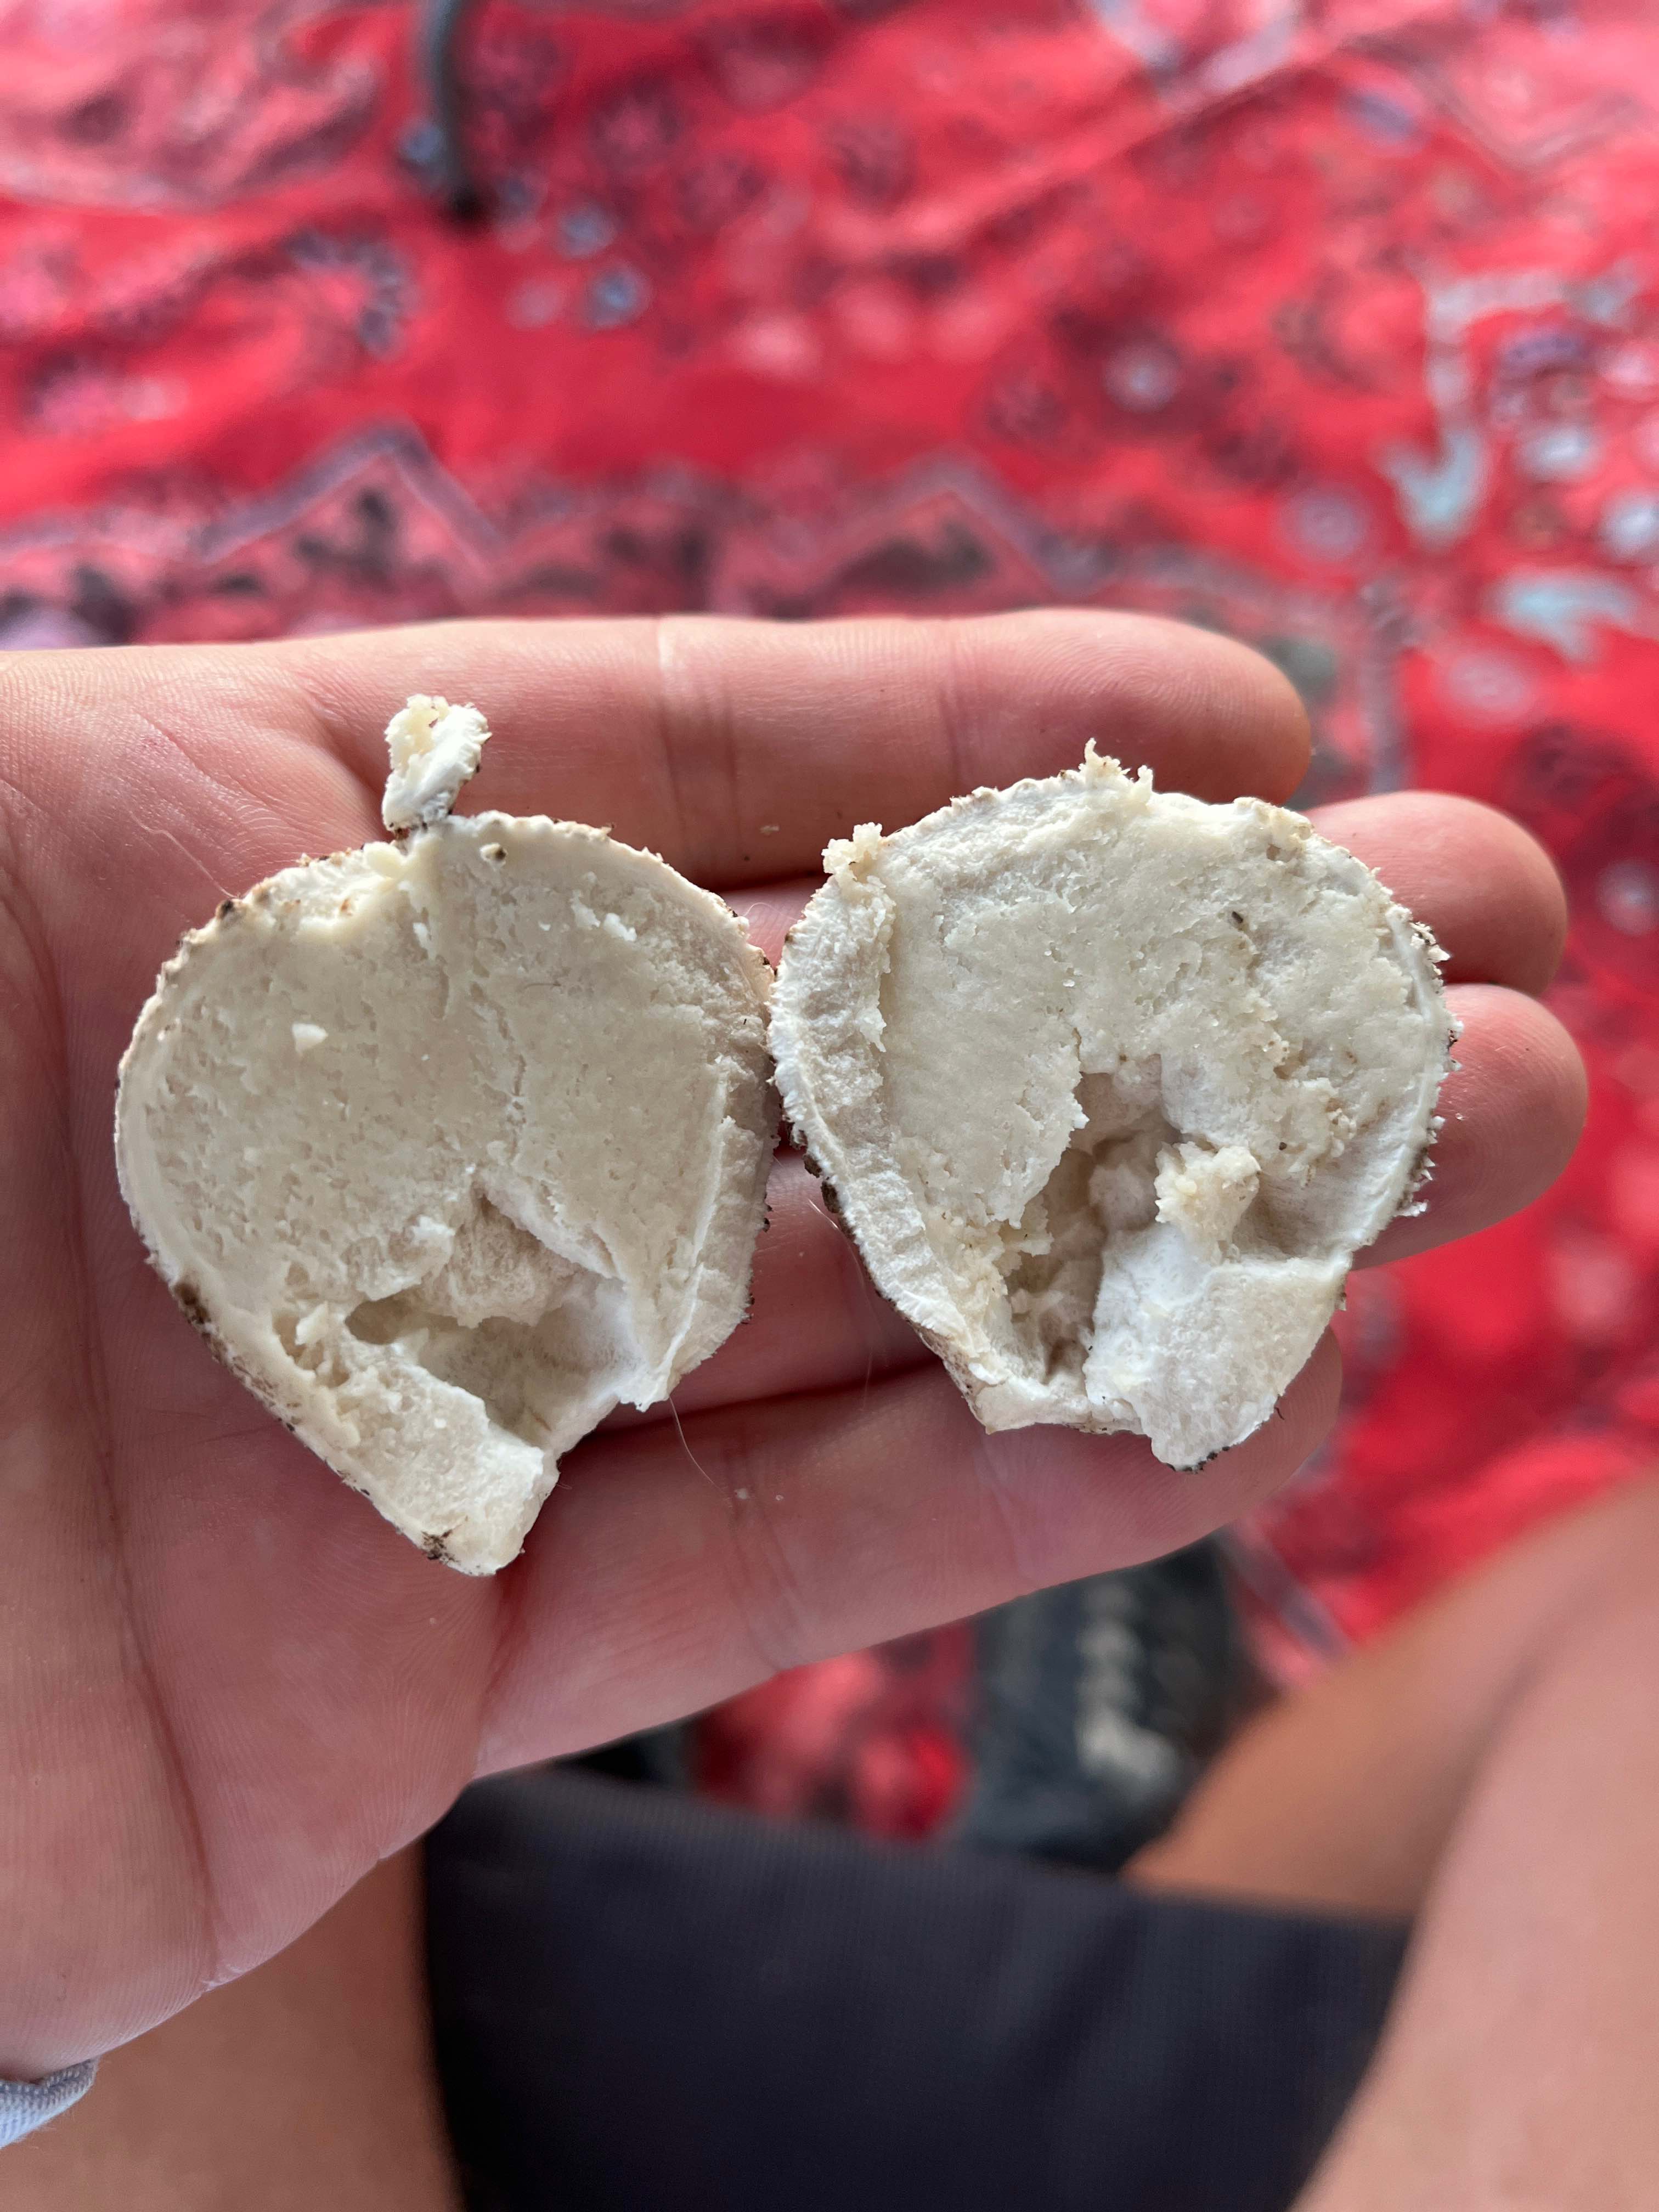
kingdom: Fungi
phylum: Basidiomycota
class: Agaricomycetes
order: Agaricales
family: Lycoperdaceae
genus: Bovistella
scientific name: Bovistella utriformis
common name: skællet støvbold
